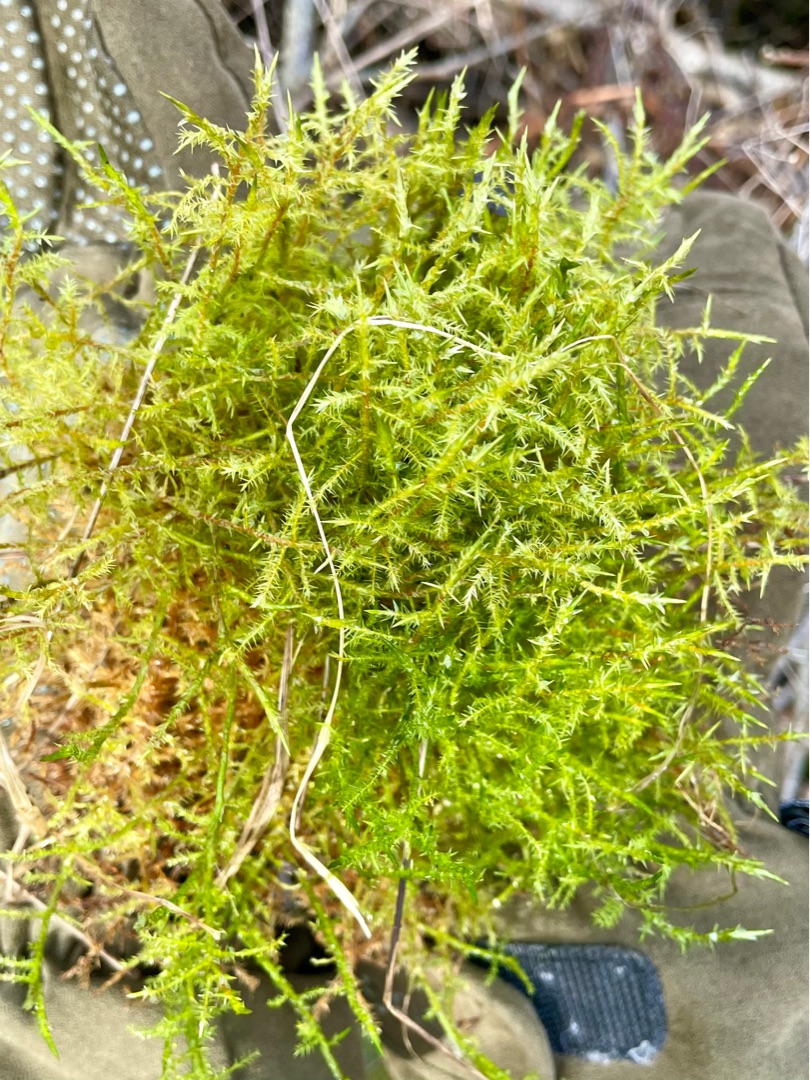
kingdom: Plantae
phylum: Bryophyta
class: Bryopsida
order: Hypnales
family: Pylaisiaceae
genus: Calliergonella
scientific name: Calliergonella cuspidata
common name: Spids spydmos
